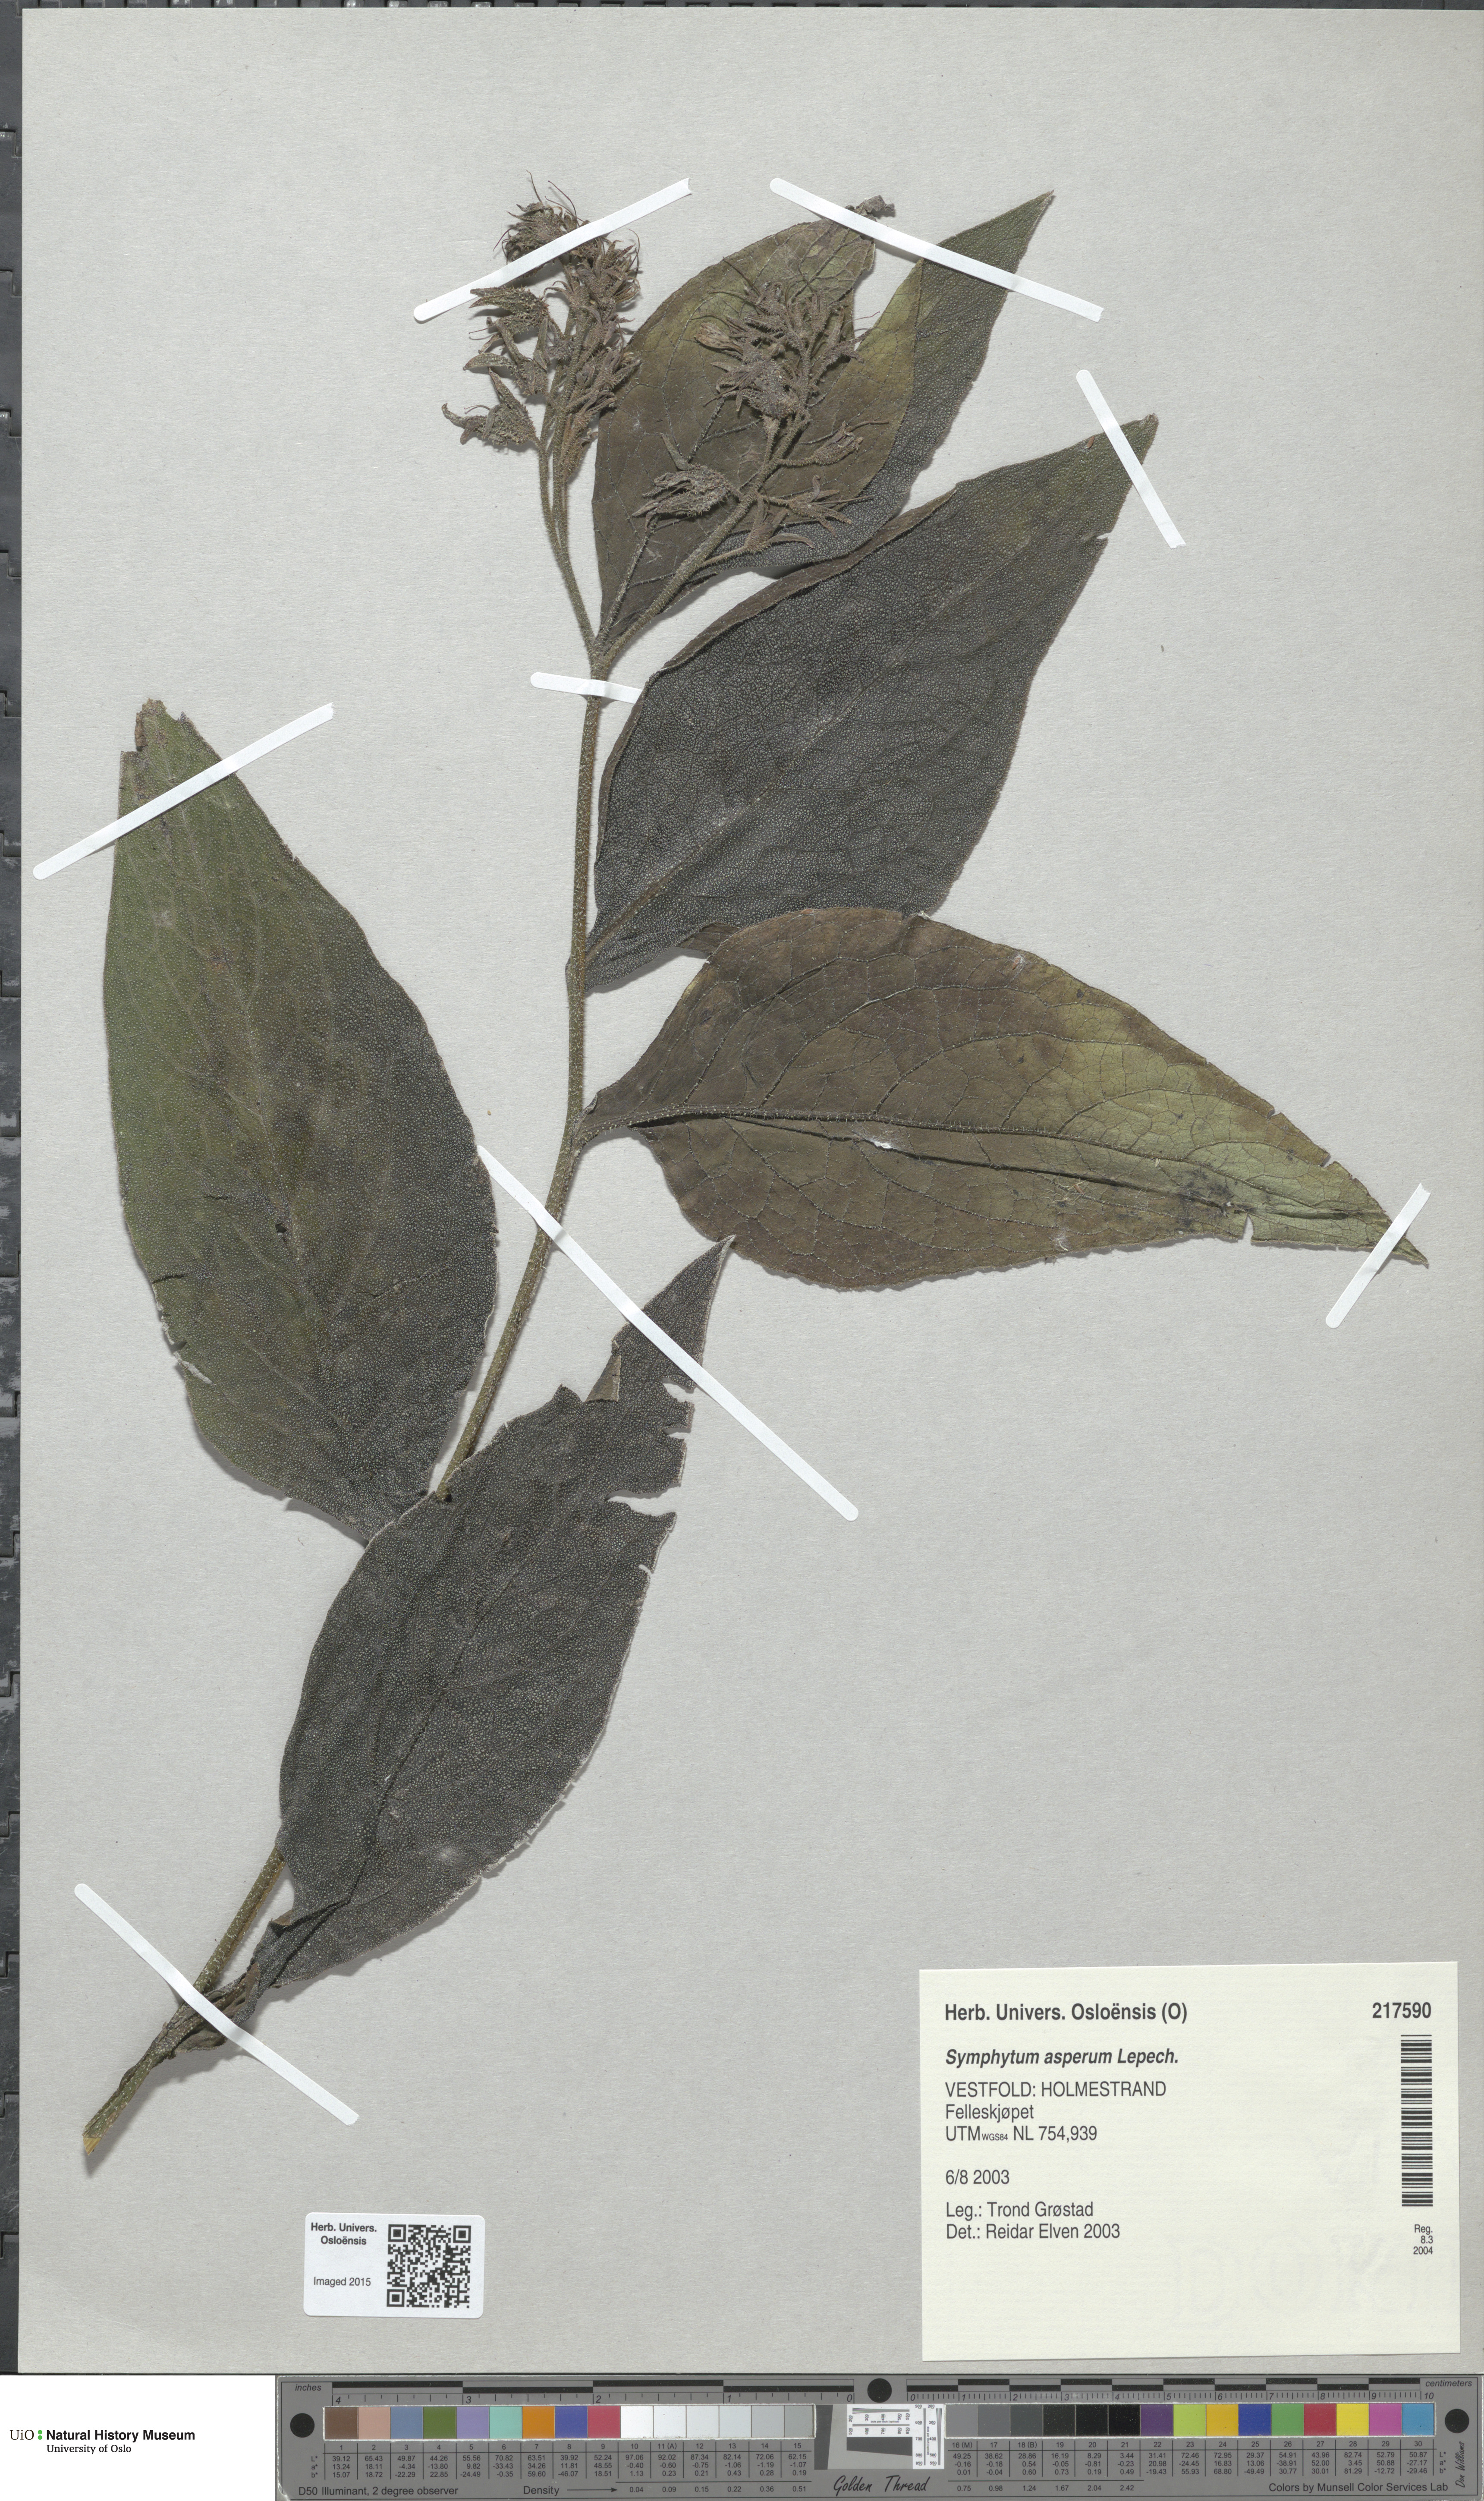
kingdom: Plantae
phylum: Tracheophyta
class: Magnoliopsida
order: Boraginales
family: Boraginaceae
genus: Symphytum
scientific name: Symphytum uplandicum
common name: Russian comfrey
